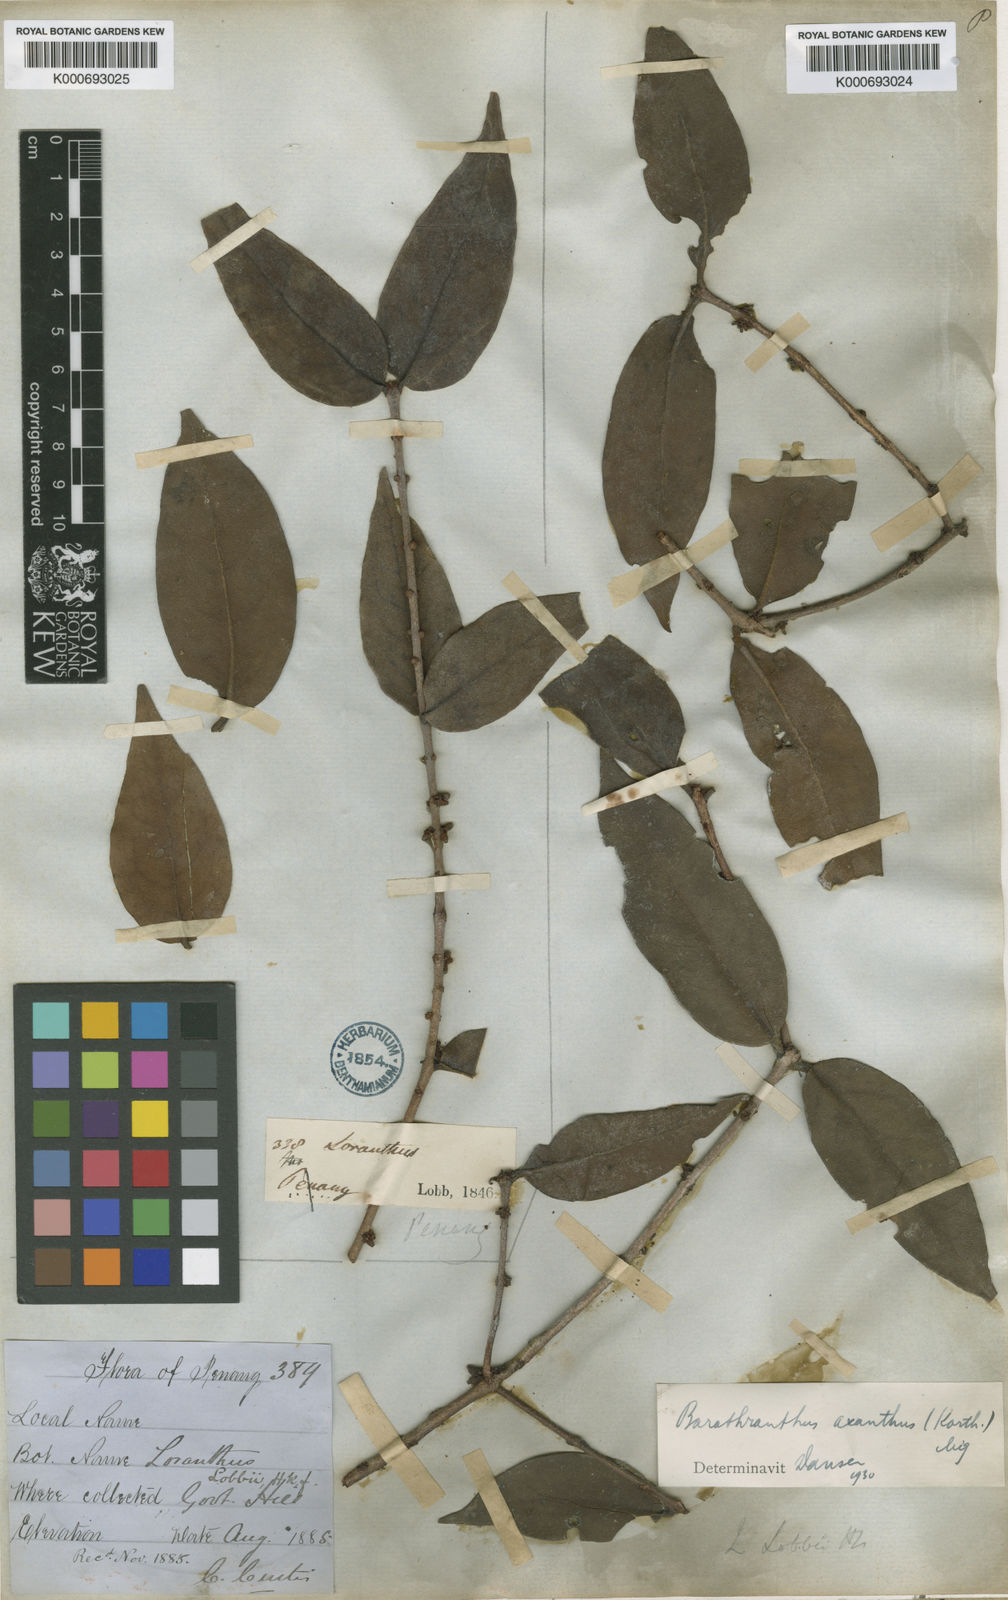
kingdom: Plantae
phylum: Tracheophyta
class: Magnoliopsida
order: Santalales
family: Loranthaceae
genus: Barathranthus
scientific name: Barathranthus axanthus
